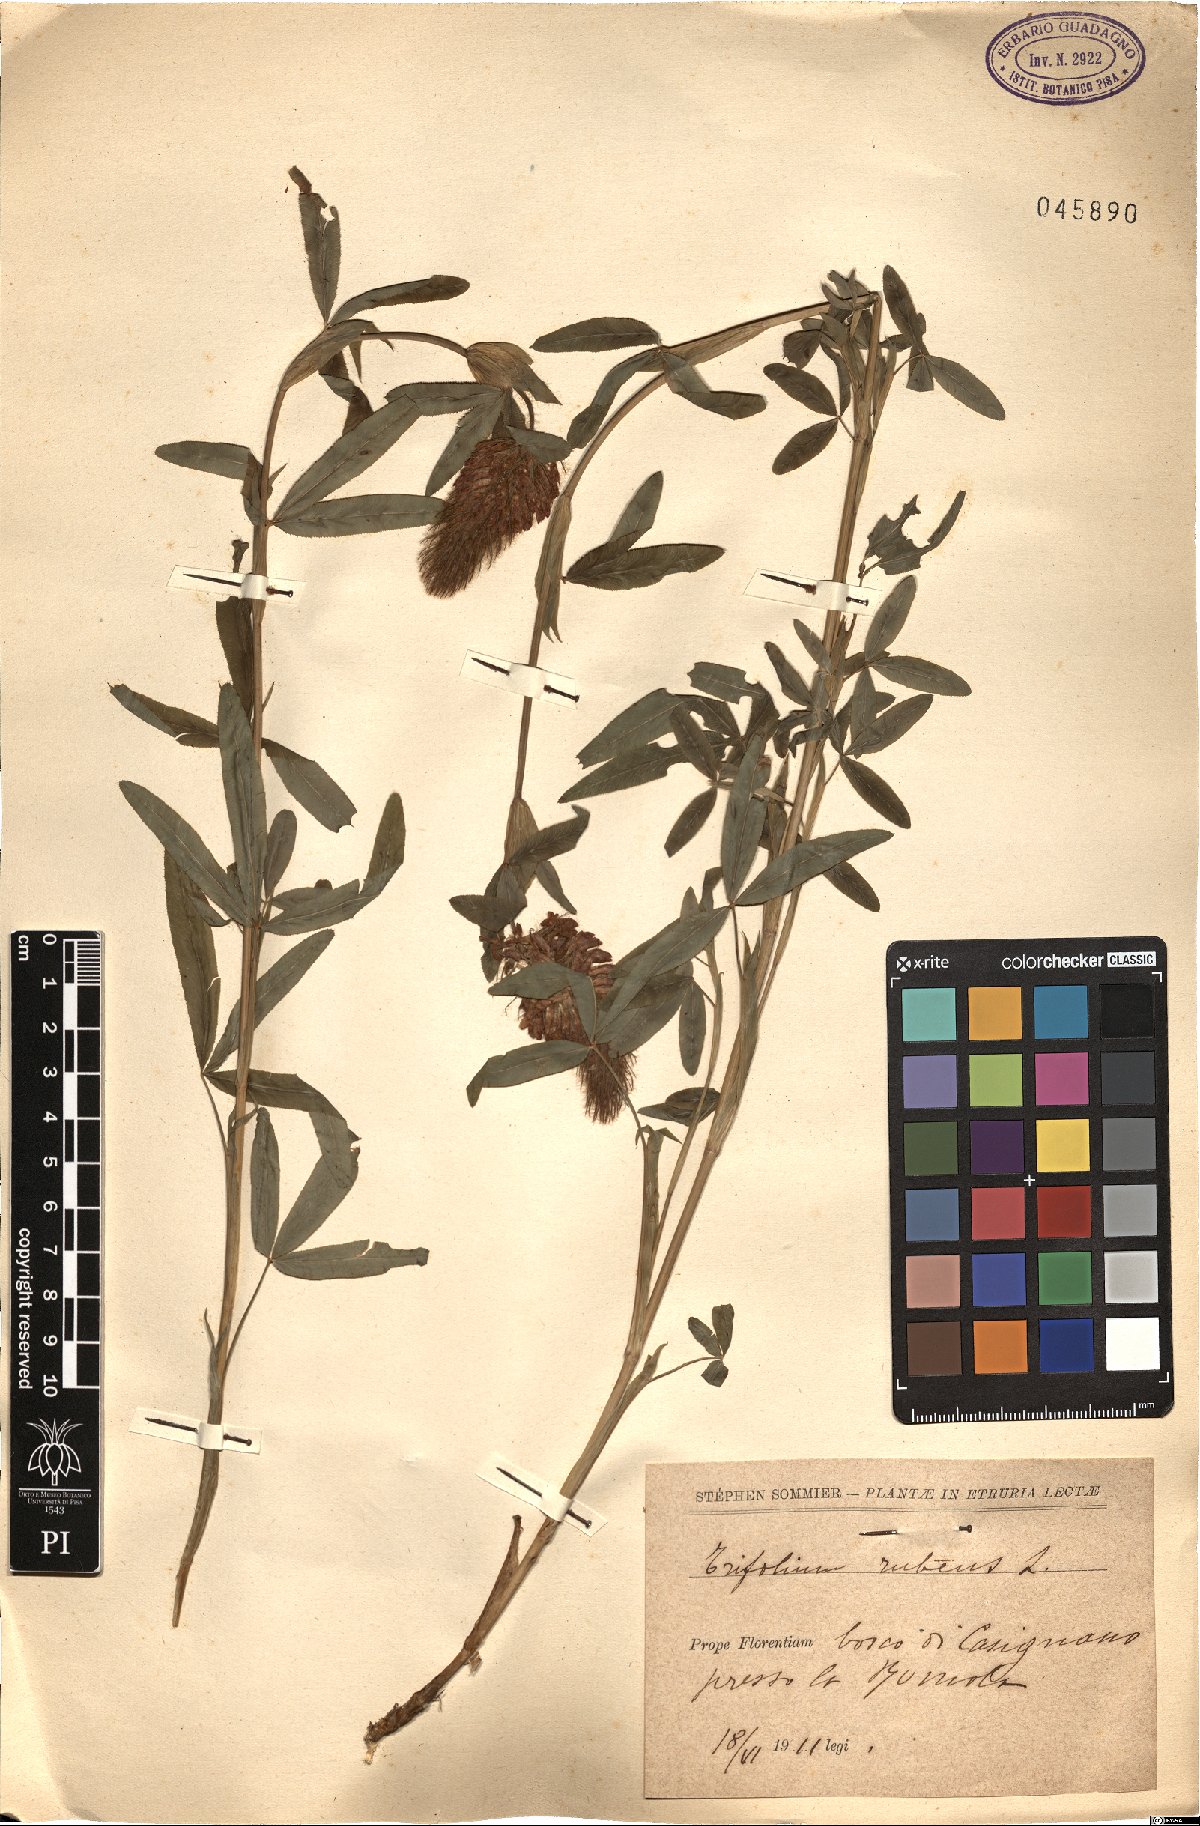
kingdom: Plantae
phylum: Tracheophyta
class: Magnoliopsida
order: Fabales
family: Fabaceae
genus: Trifolium
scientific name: Trifolium rubens
